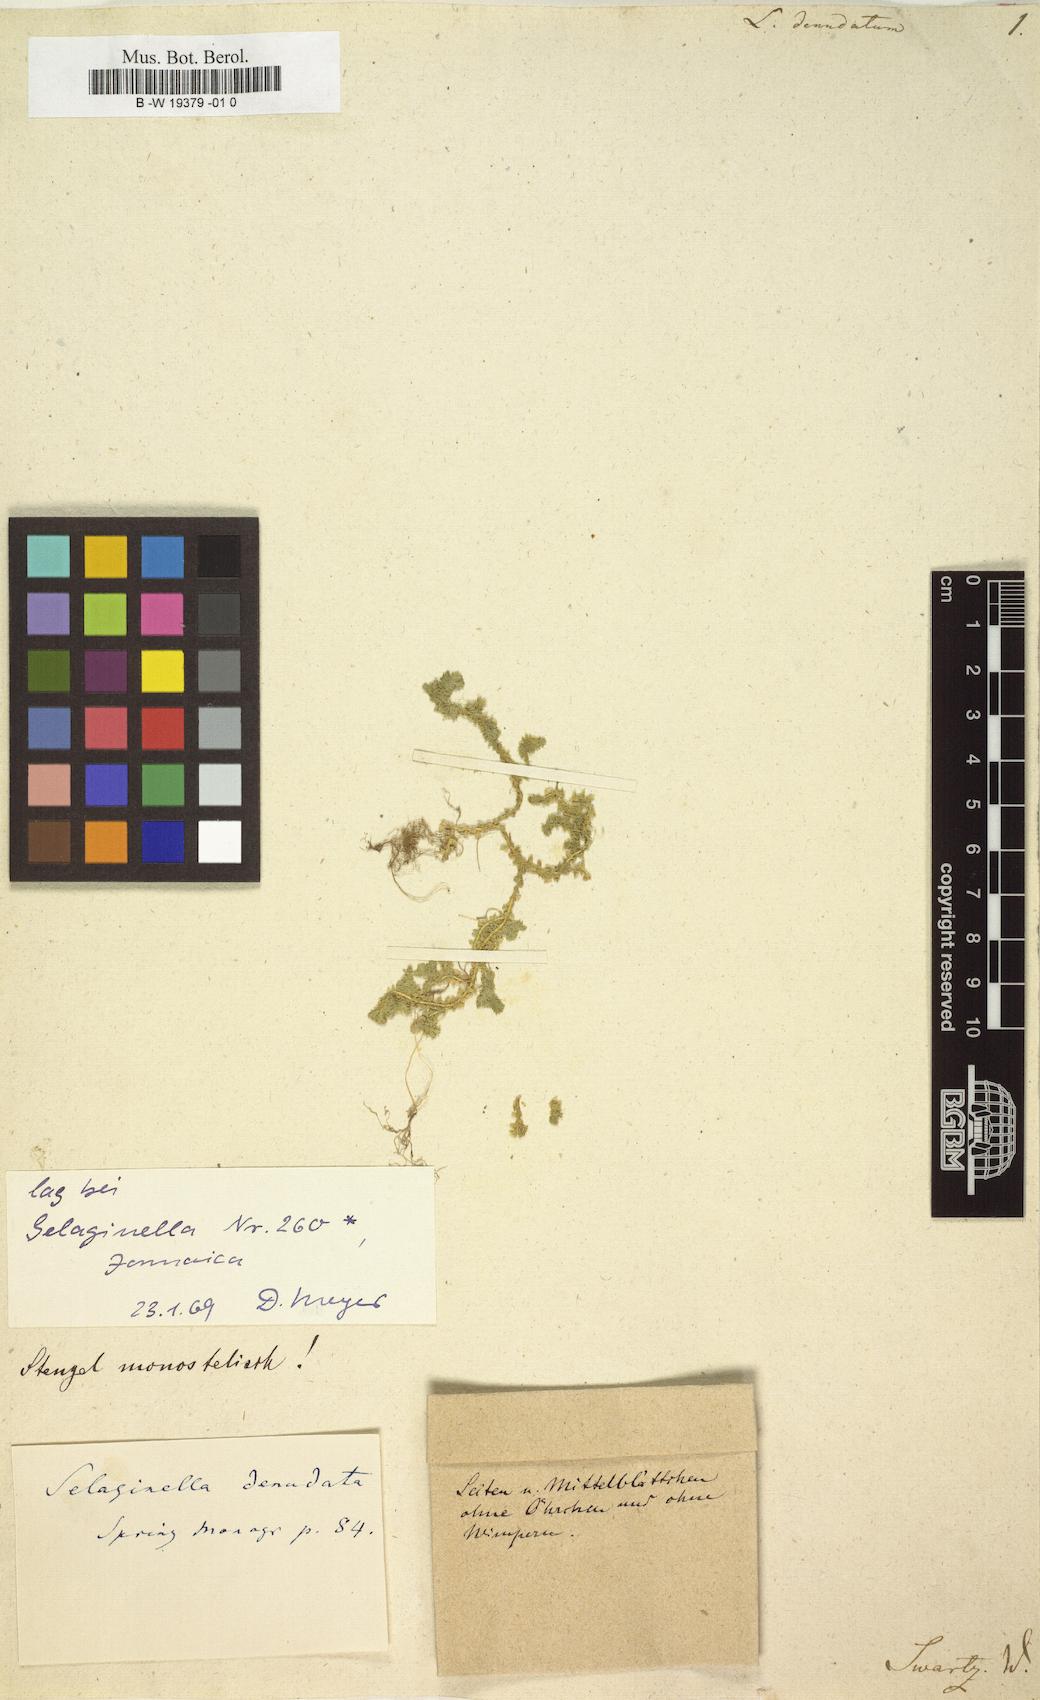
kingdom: Plantae
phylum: Tracheophyta
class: Lycopodiopsida
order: Lycopodiales
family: Lycopodiaceae
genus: Phlegmariurus
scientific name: Phlegmariurus dentatus
